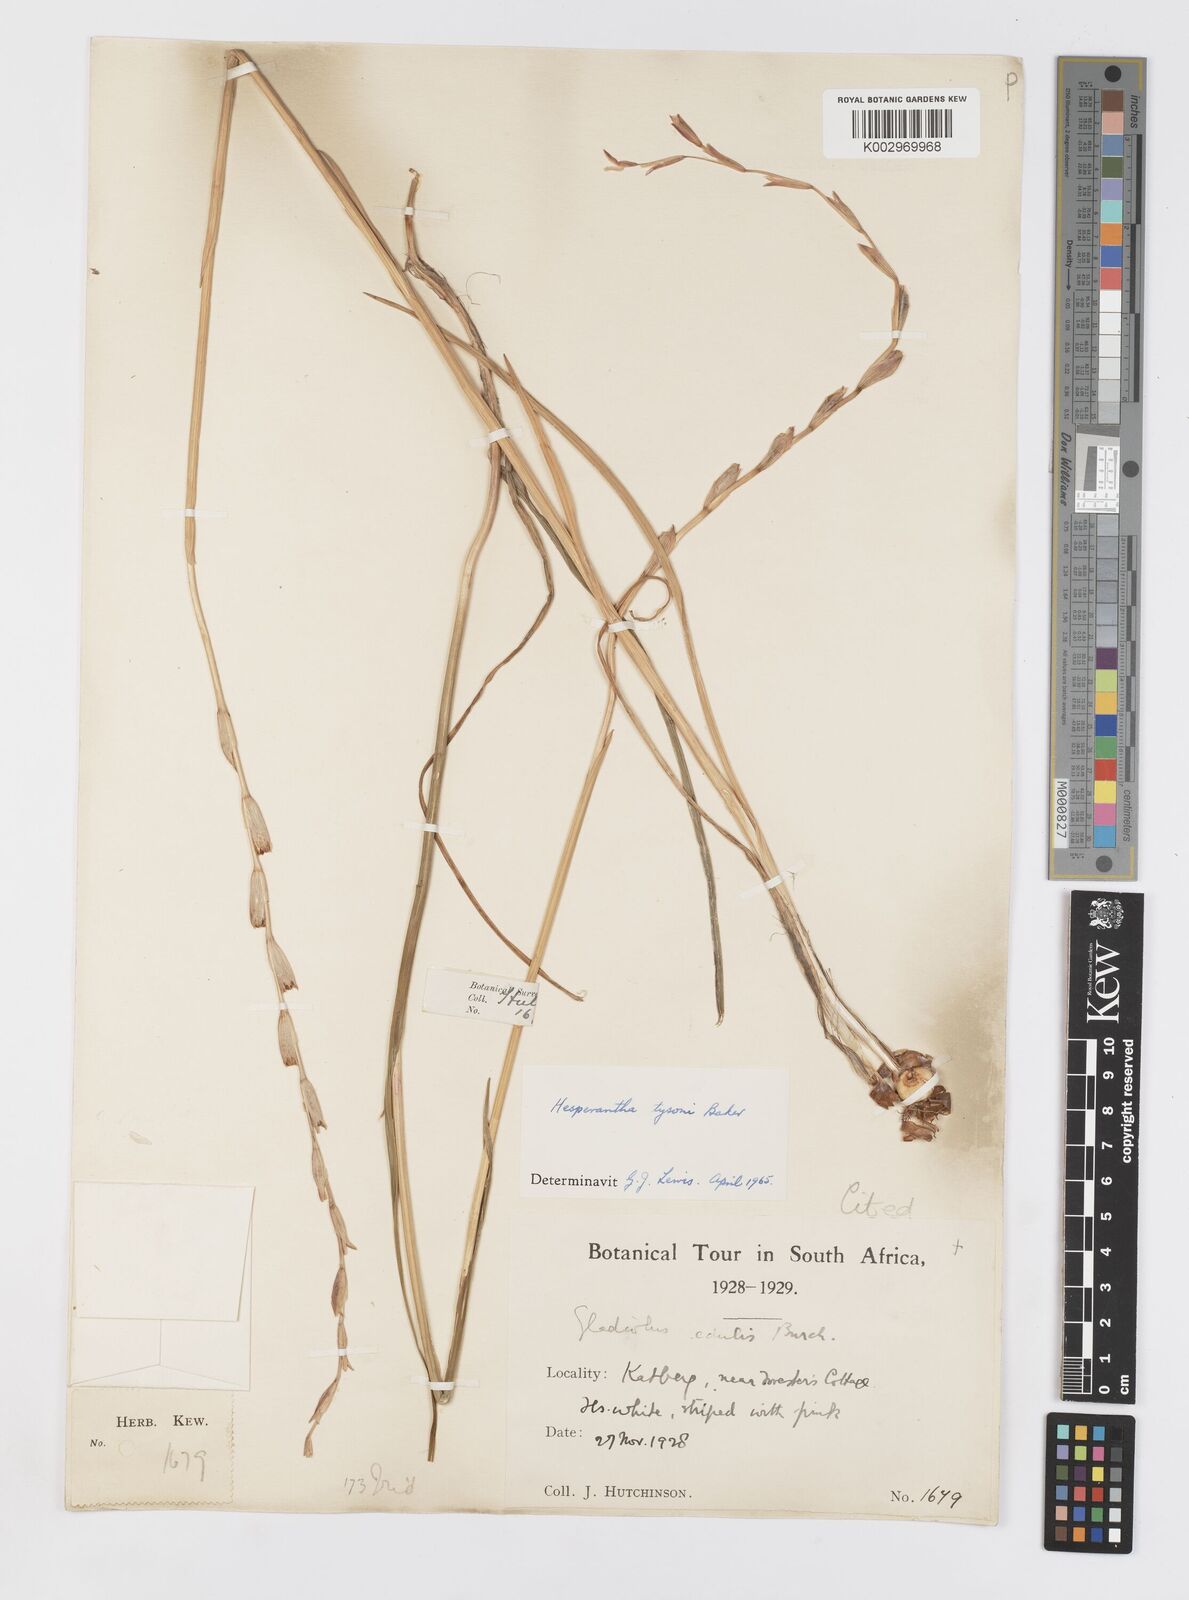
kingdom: Plantae
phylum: Tracheophyta
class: Liliopsida
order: Asparagales
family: Iridaceae
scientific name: Iridaceae
